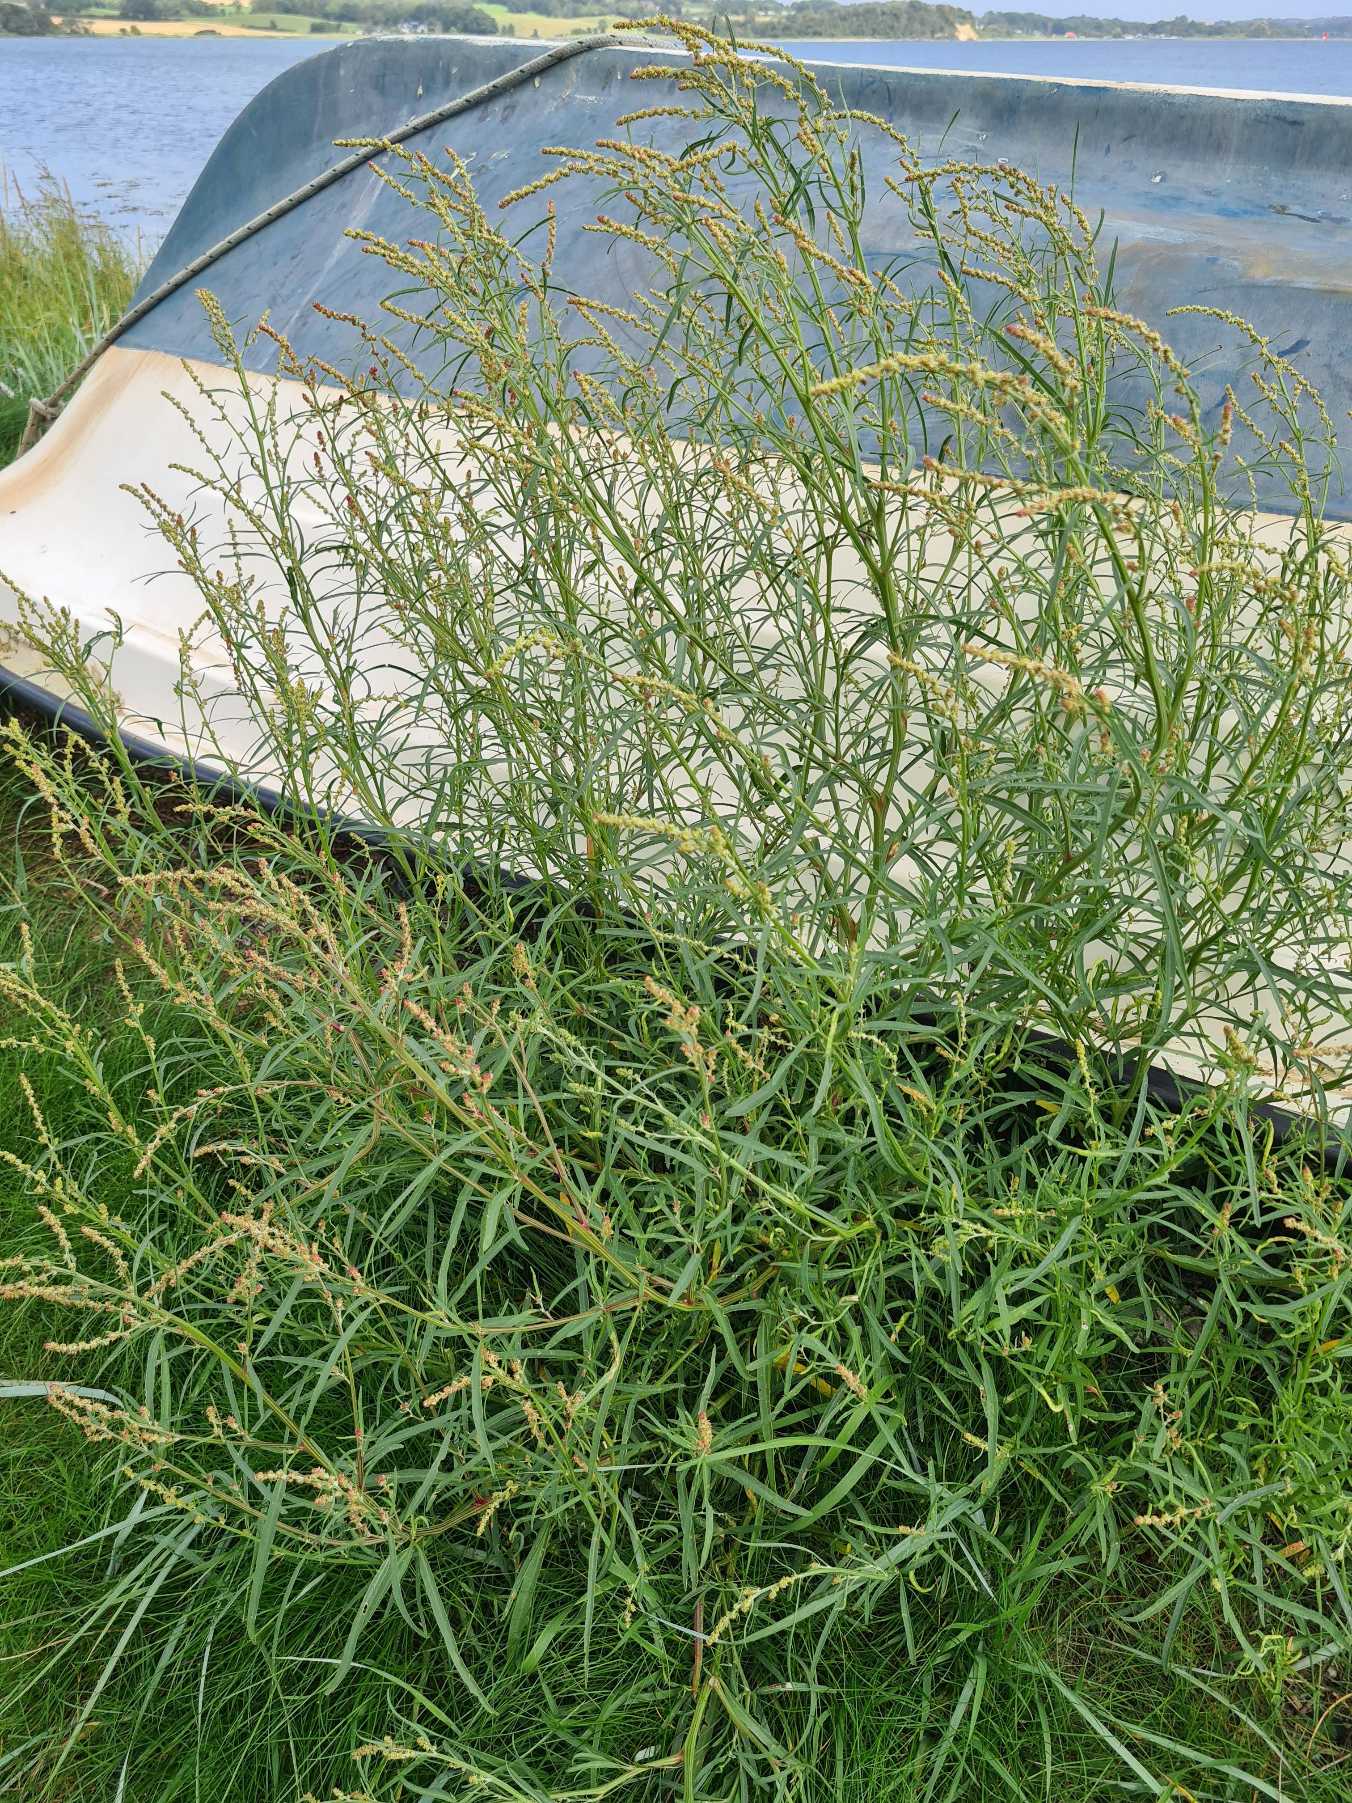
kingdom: Plantae
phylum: Tracheophyta
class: Magnoliopsida
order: Caryophyllales
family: Amaranthaceae
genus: Atriplex
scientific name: Atriplex littoralis
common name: Strand-mælde
